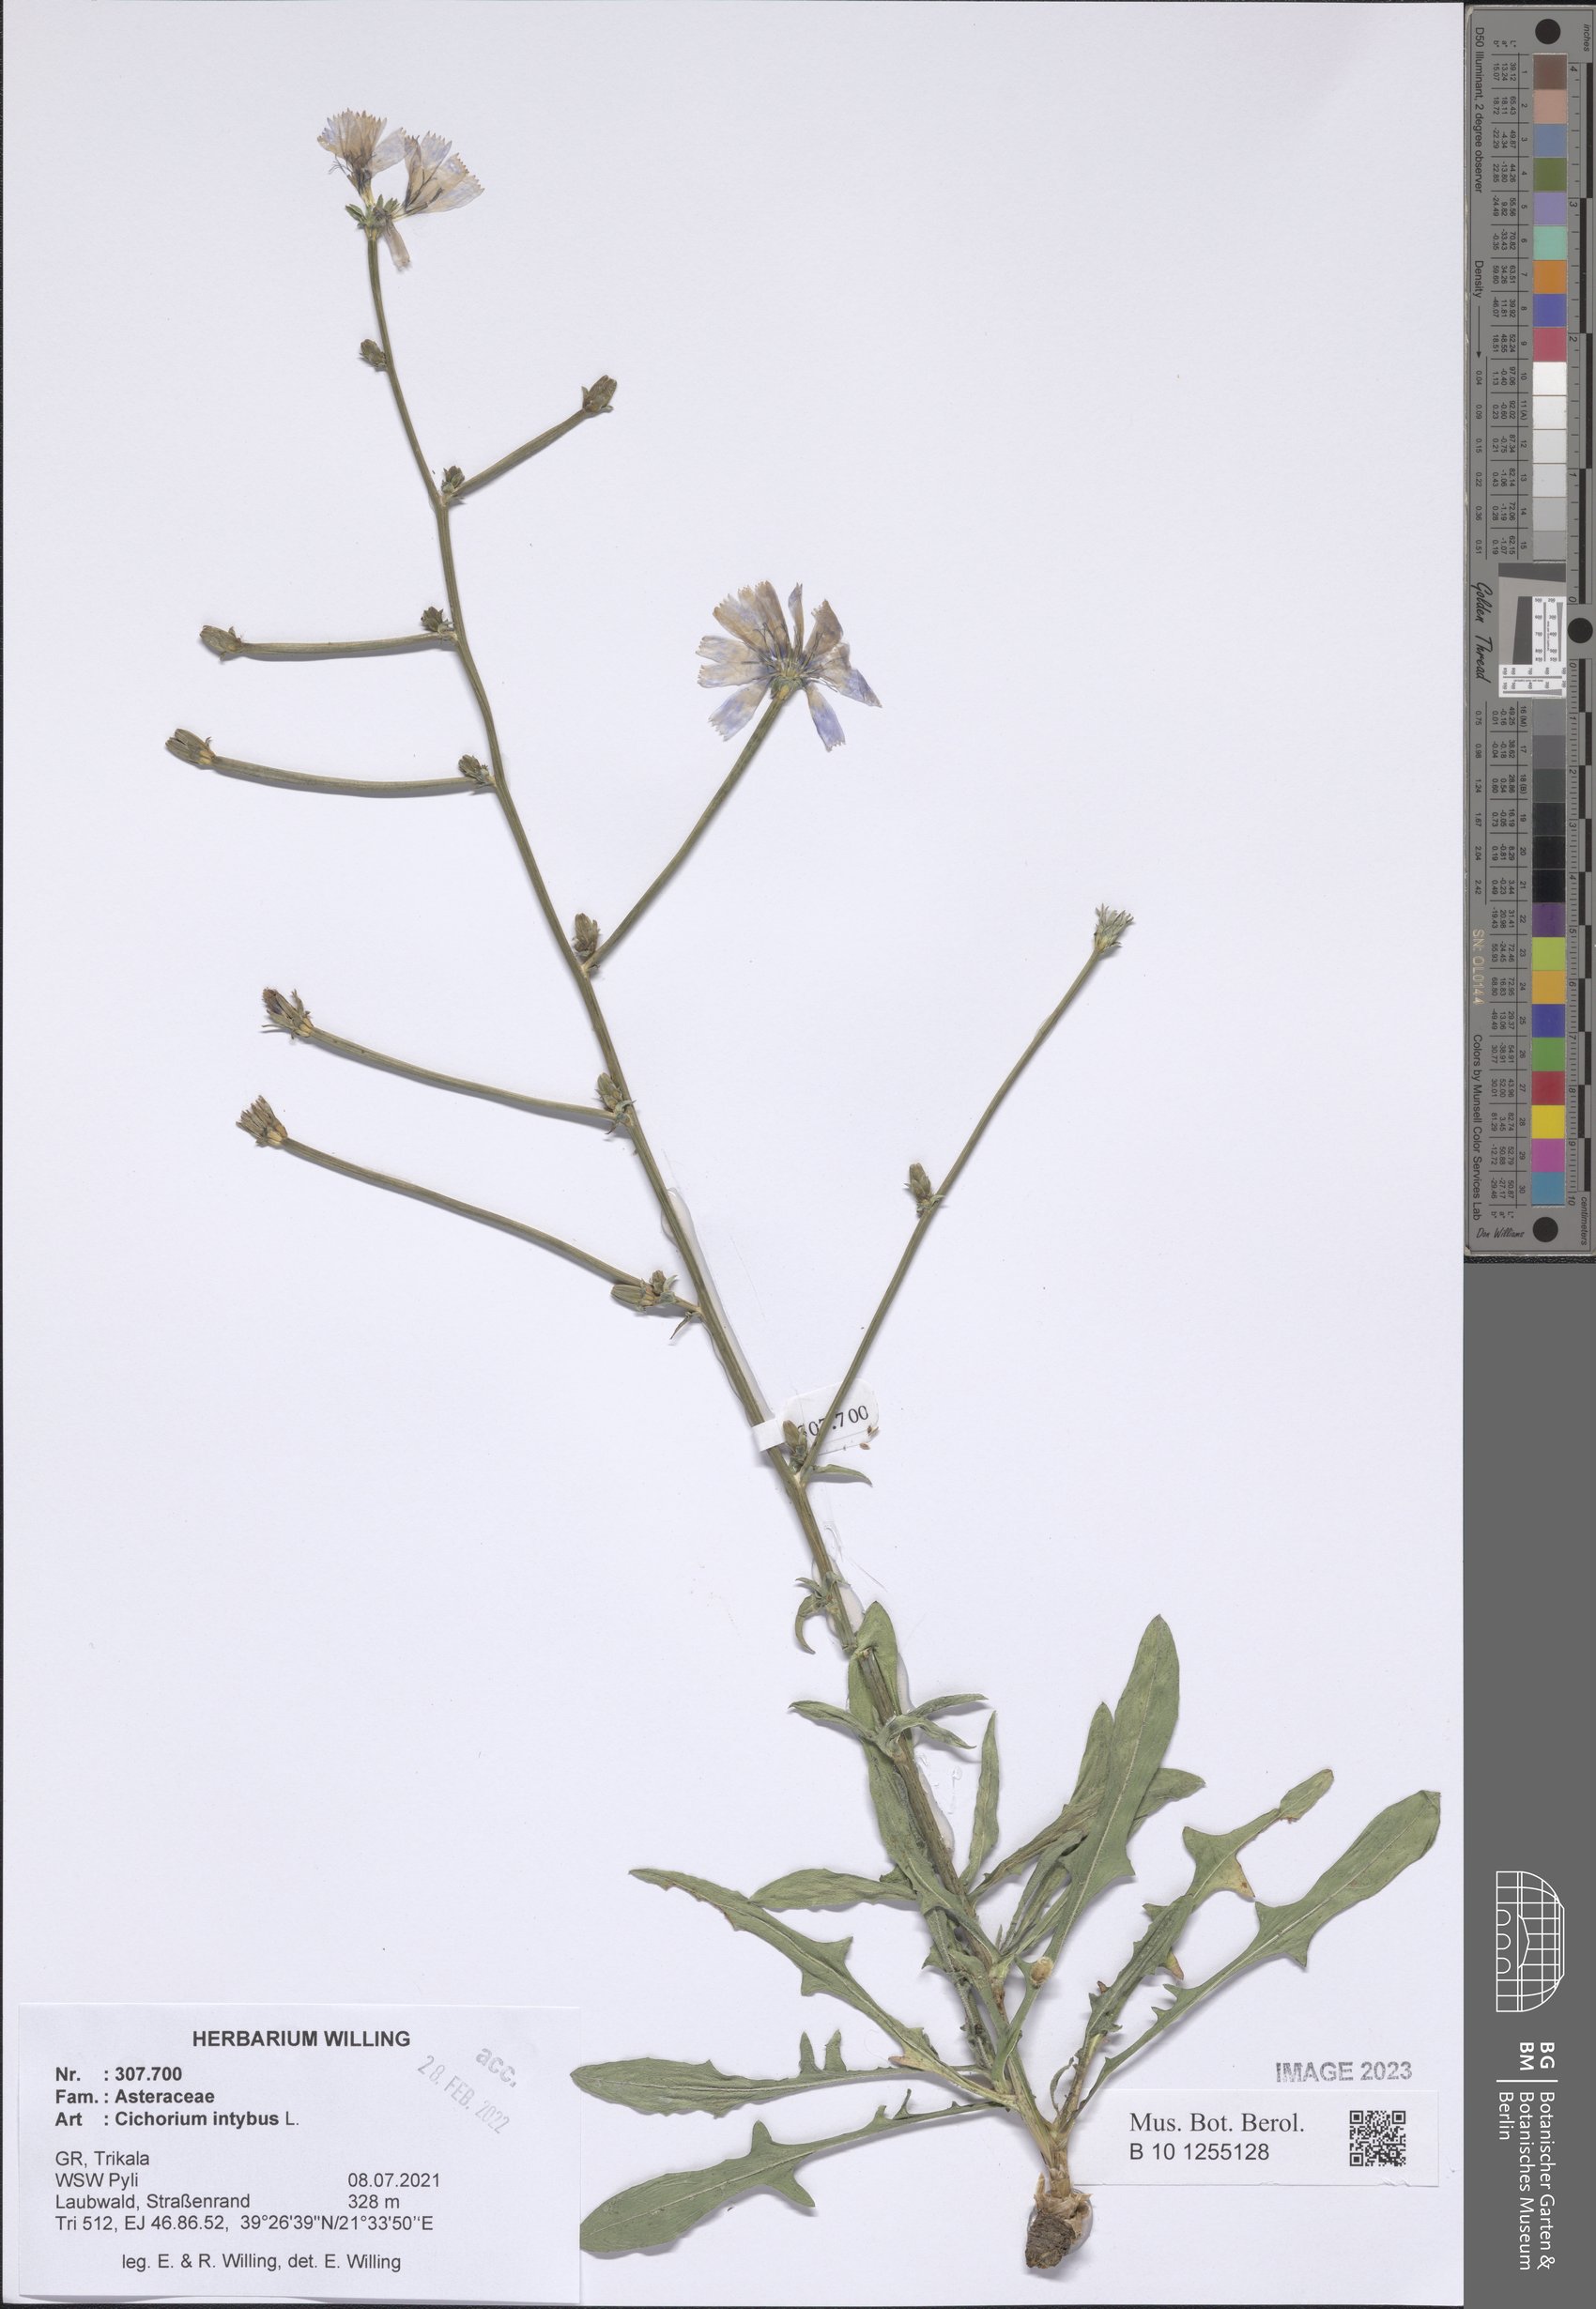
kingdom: Plantae
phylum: Tracheophyta
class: Magnoliopsida
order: Asterales
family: Asteraceae
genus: Cichorium
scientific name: Cichorium intybus
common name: Chicory
